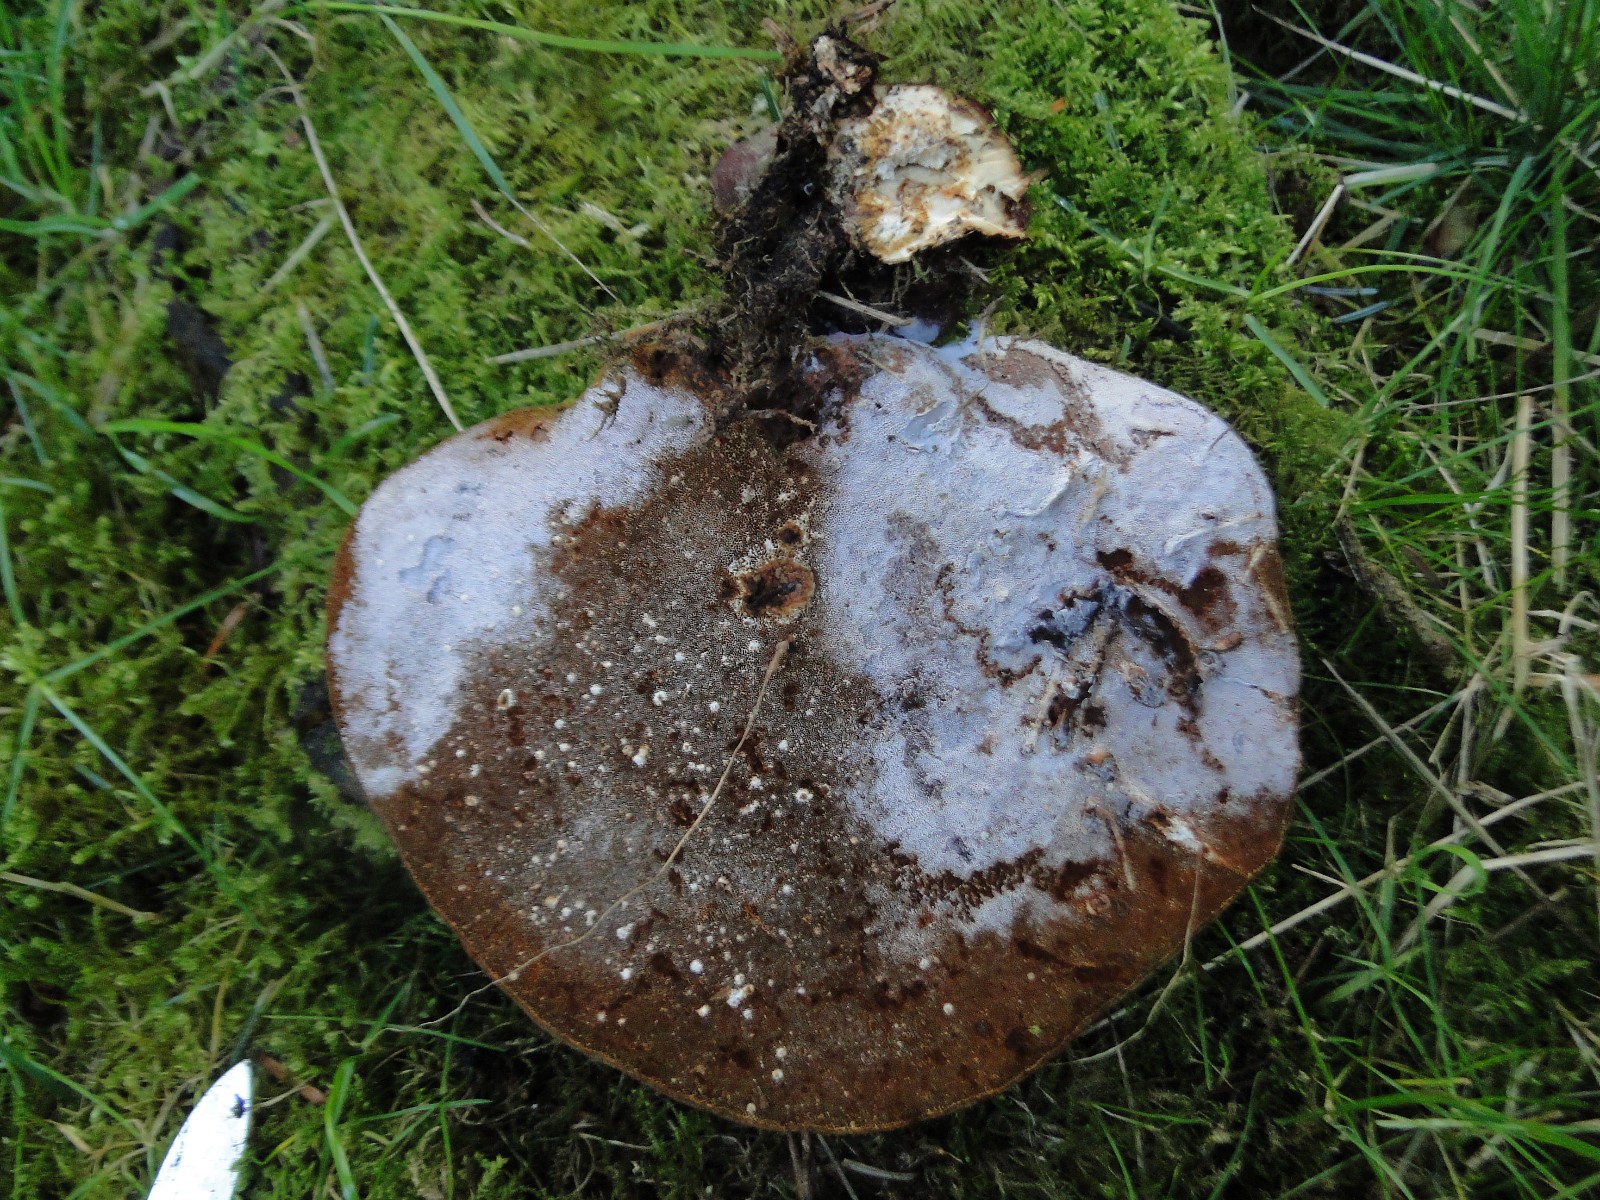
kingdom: Fungi
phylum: Basidiomycota
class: Agaricomycetes
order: Polyporales
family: Polyporaceae
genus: Ganoderma
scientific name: Ganoderma lucidum
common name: skinnende lakporesvamp
